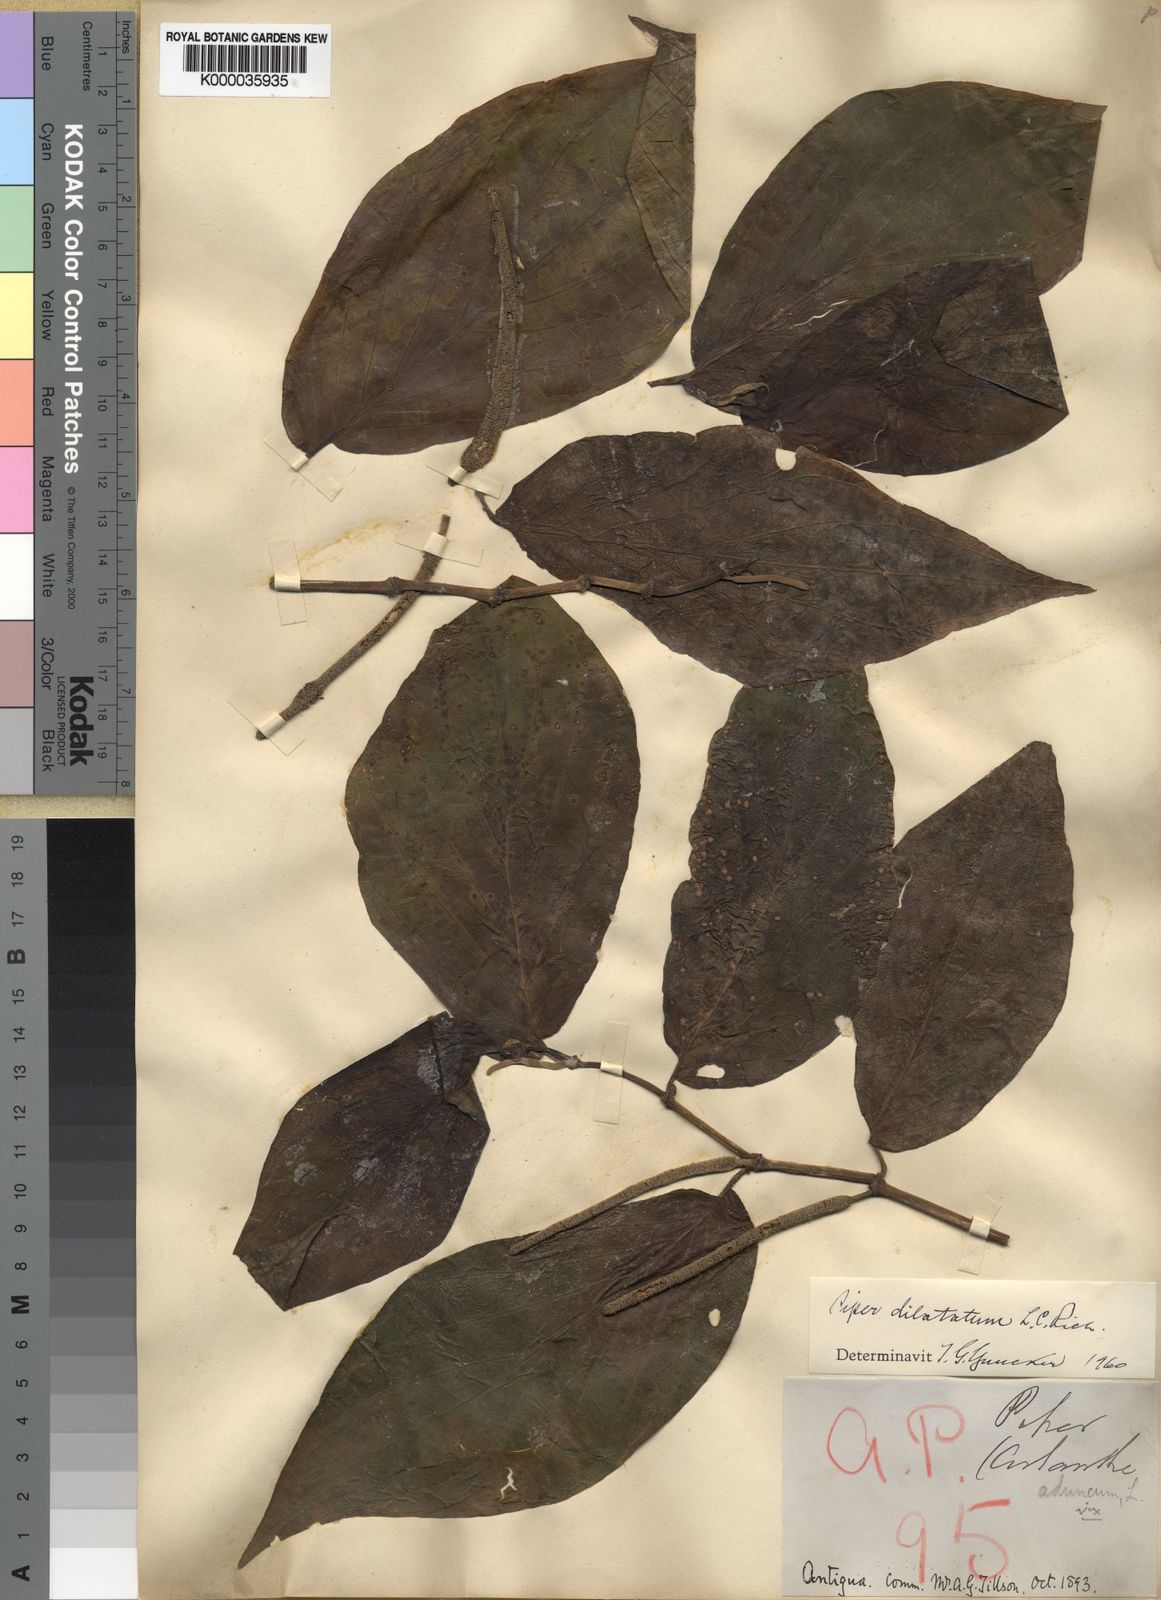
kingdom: Plantae
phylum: Tracheophyta
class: Magnoliopsida
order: Piperales
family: Piperaceae
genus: Piper
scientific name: Piper
